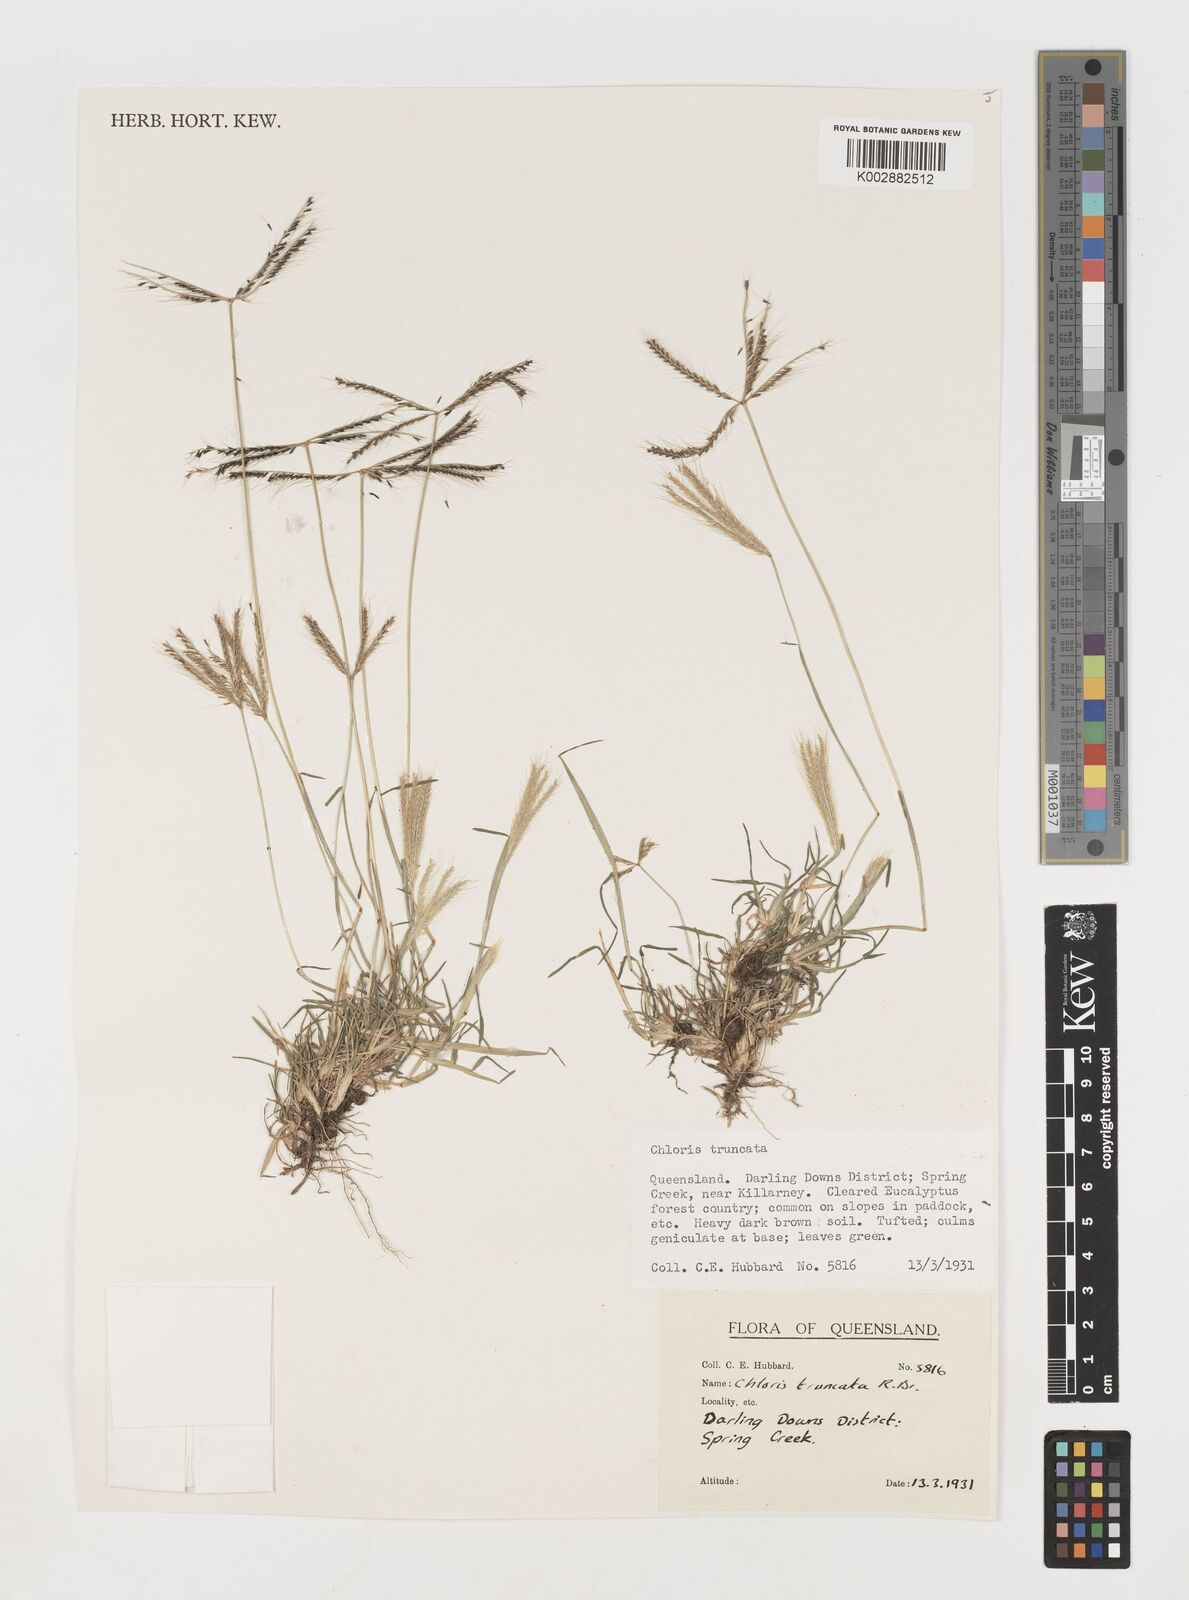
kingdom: Plantae
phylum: Tracheophyta
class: Liliopsida
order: Poales
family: Poaceae
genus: Chloris
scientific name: Chloris truncata
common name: Windmill-grass
